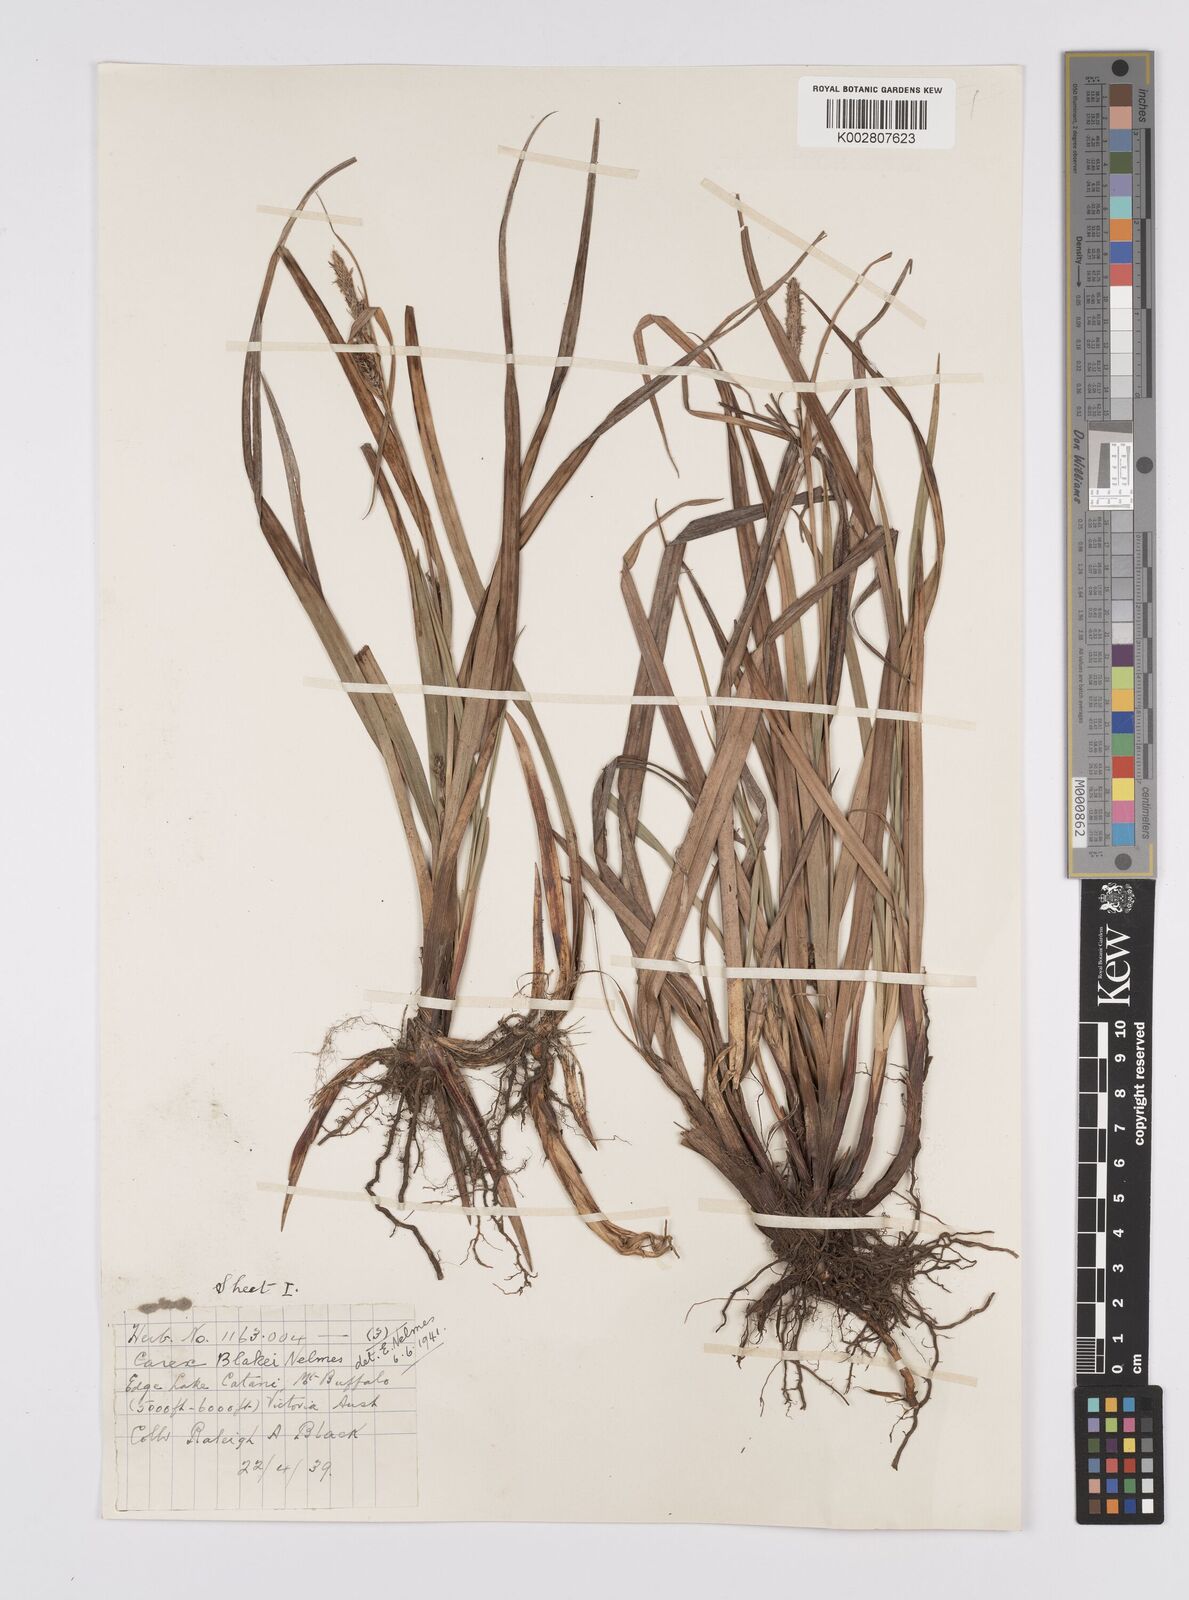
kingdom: Plantae
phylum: Tracheophyta
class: Liliopsida
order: Poales
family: Cyperaceae
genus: Carex
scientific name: Carex blakei
